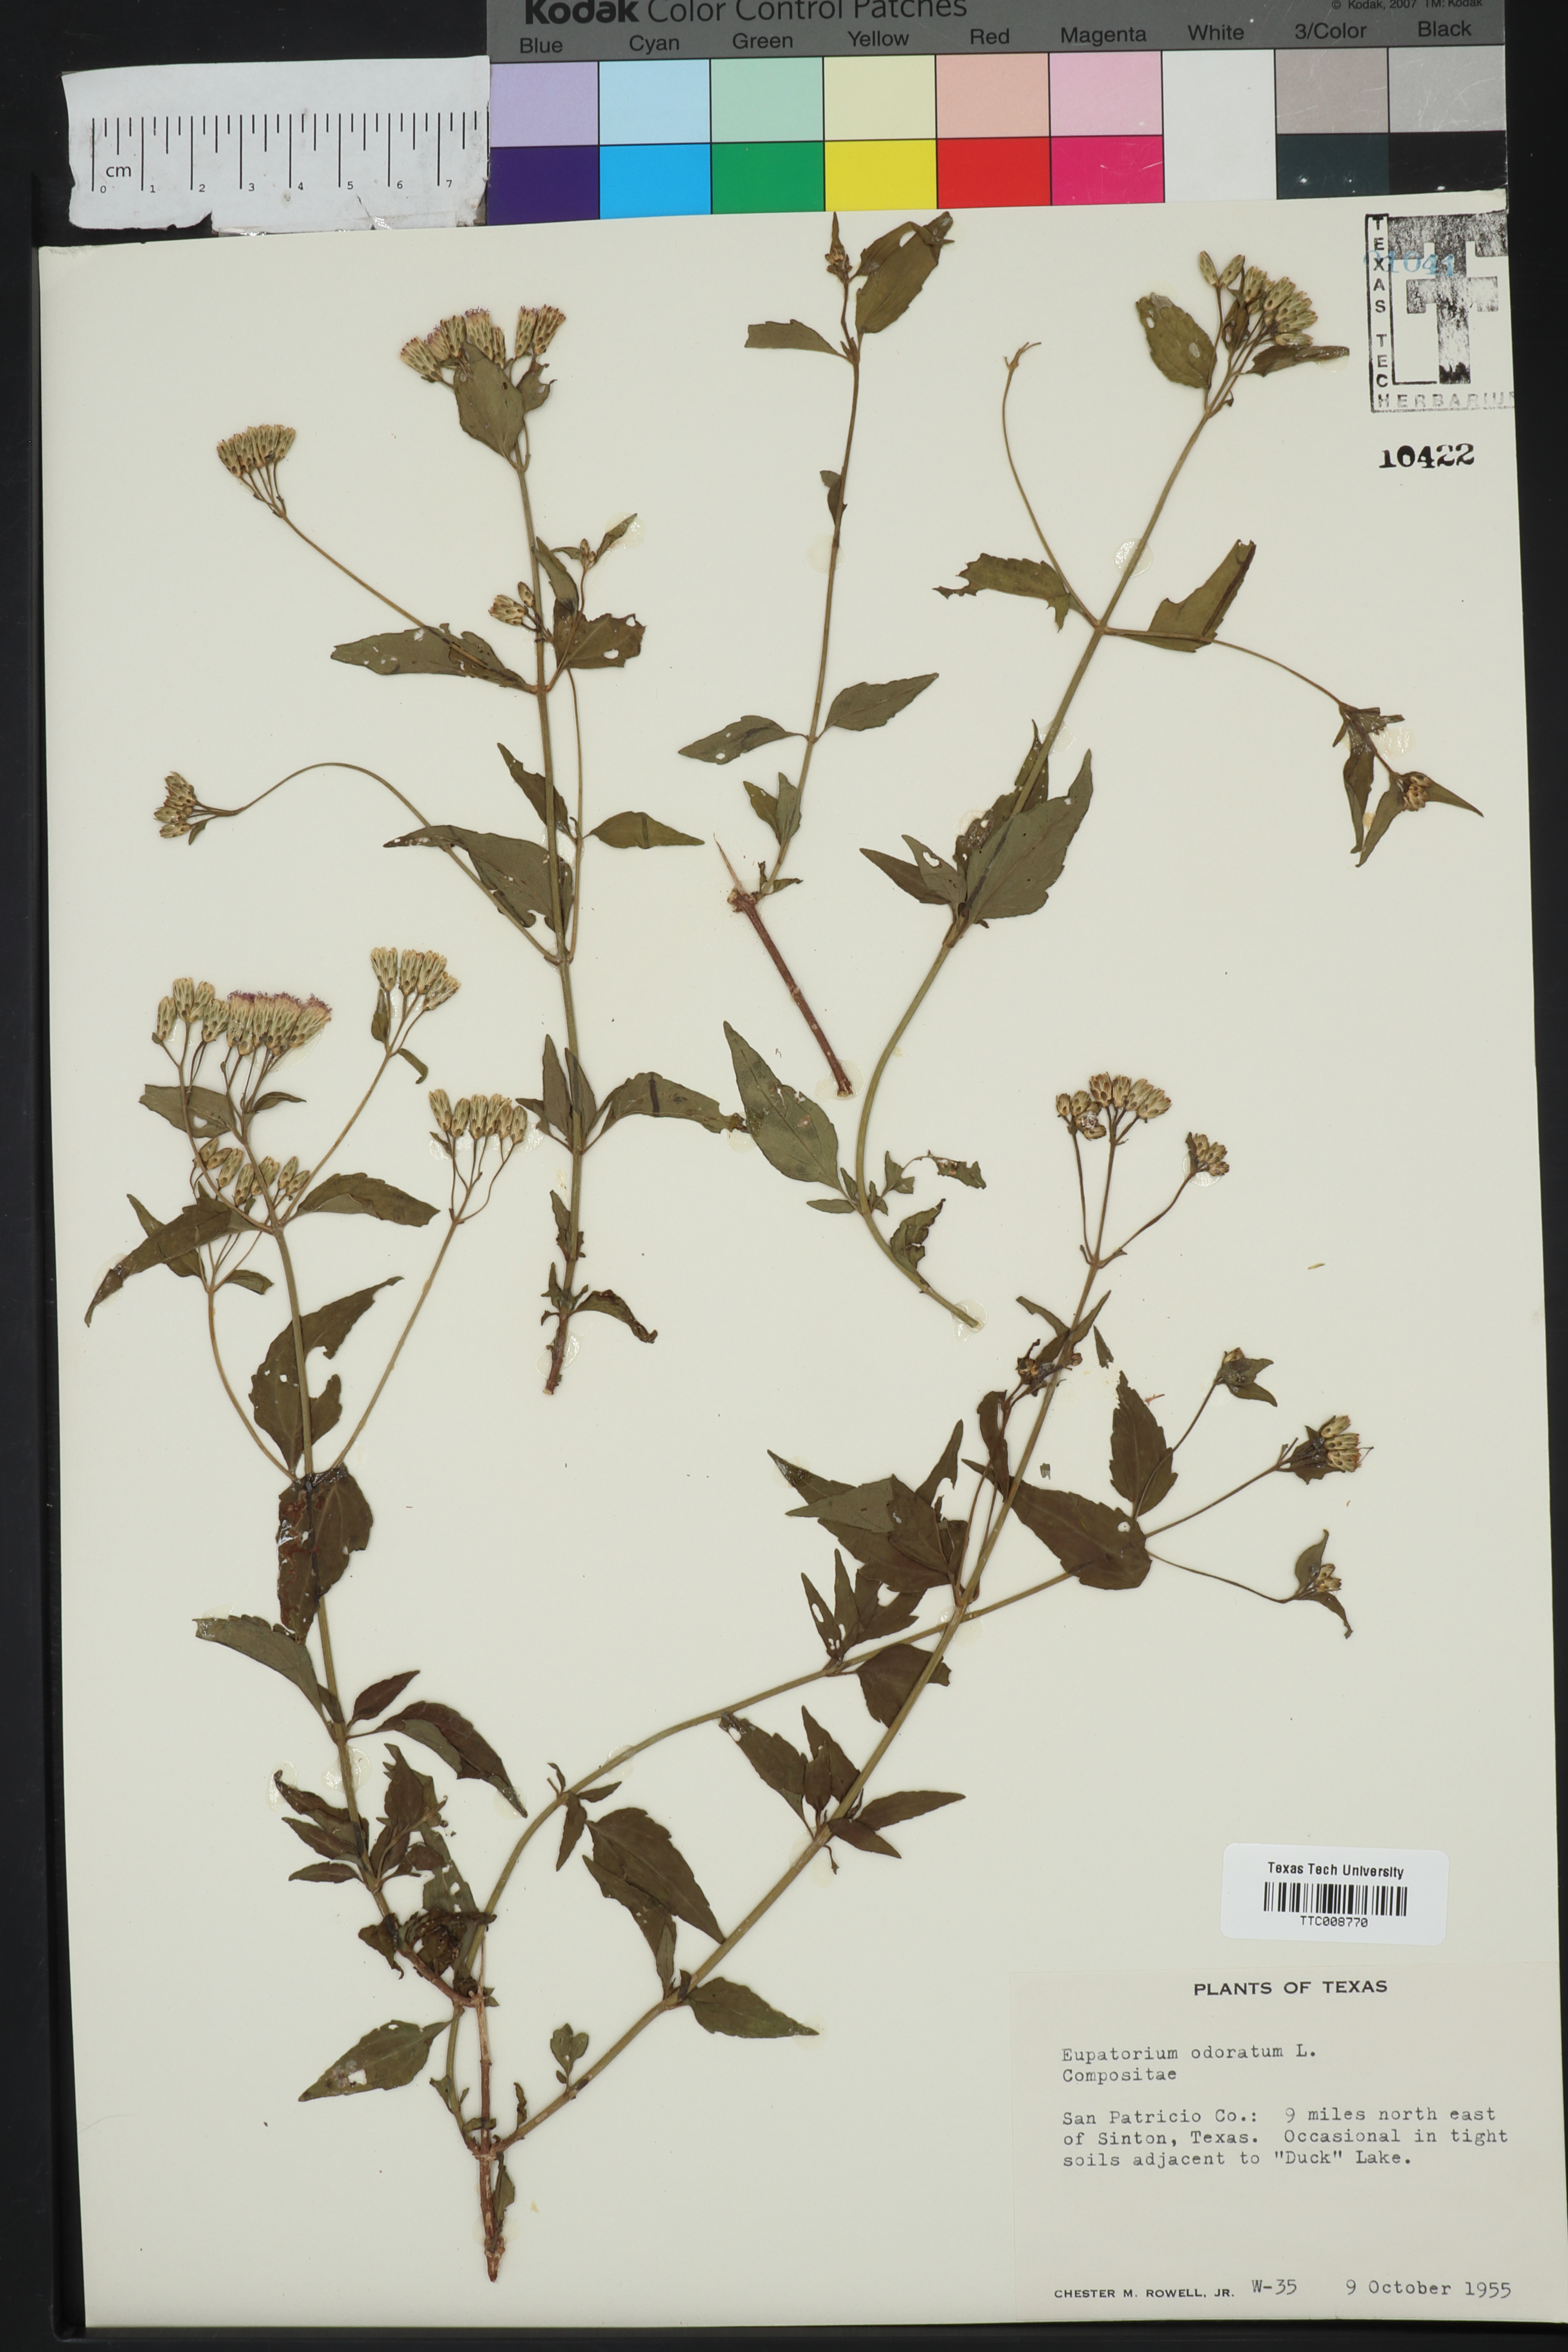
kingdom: Plantae
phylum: Tracheophyta
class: Magnoliopsida
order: Asterales
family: Asteraceae
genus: Ageratina
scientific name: Ageratina altissima
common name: White snakeroot
